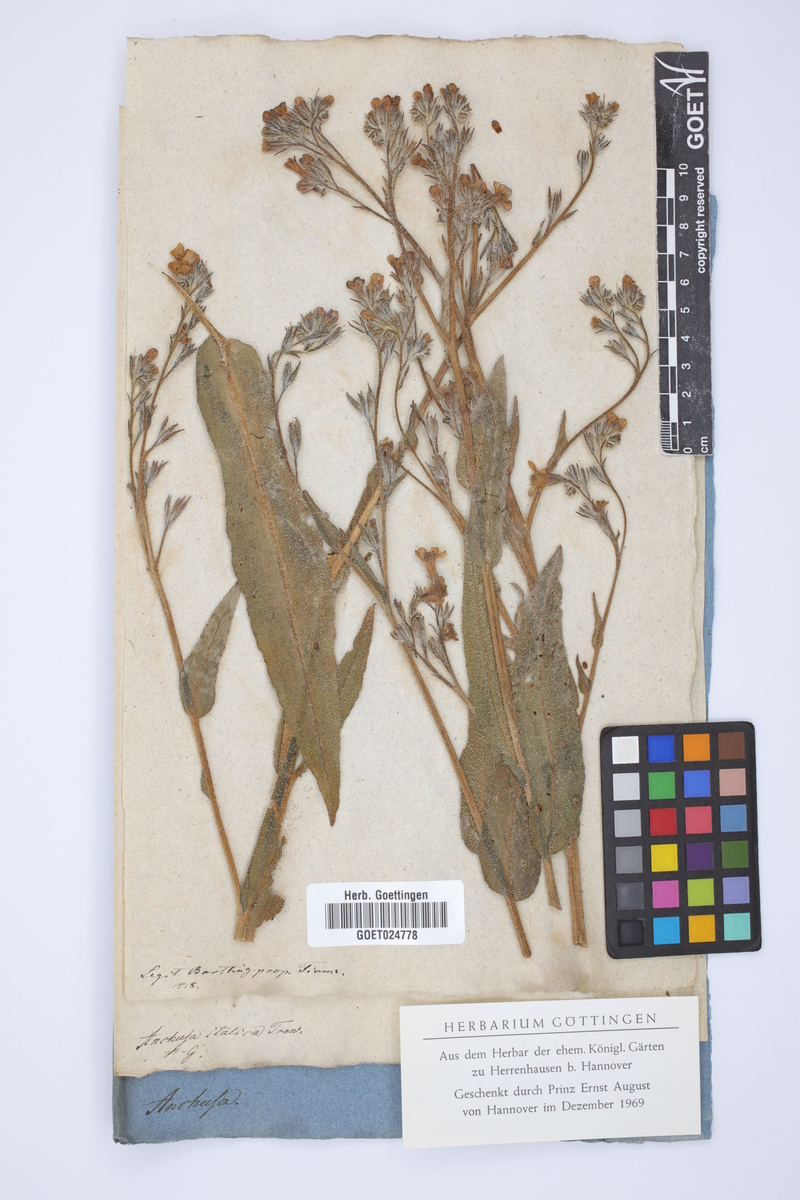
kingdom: Plantae
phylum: Tracheophyta
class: Magnoliopsida
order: Boraginales
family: Boraginaceae
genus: Anchusa
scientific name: Anchusa azurea
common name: Garden anchusa
